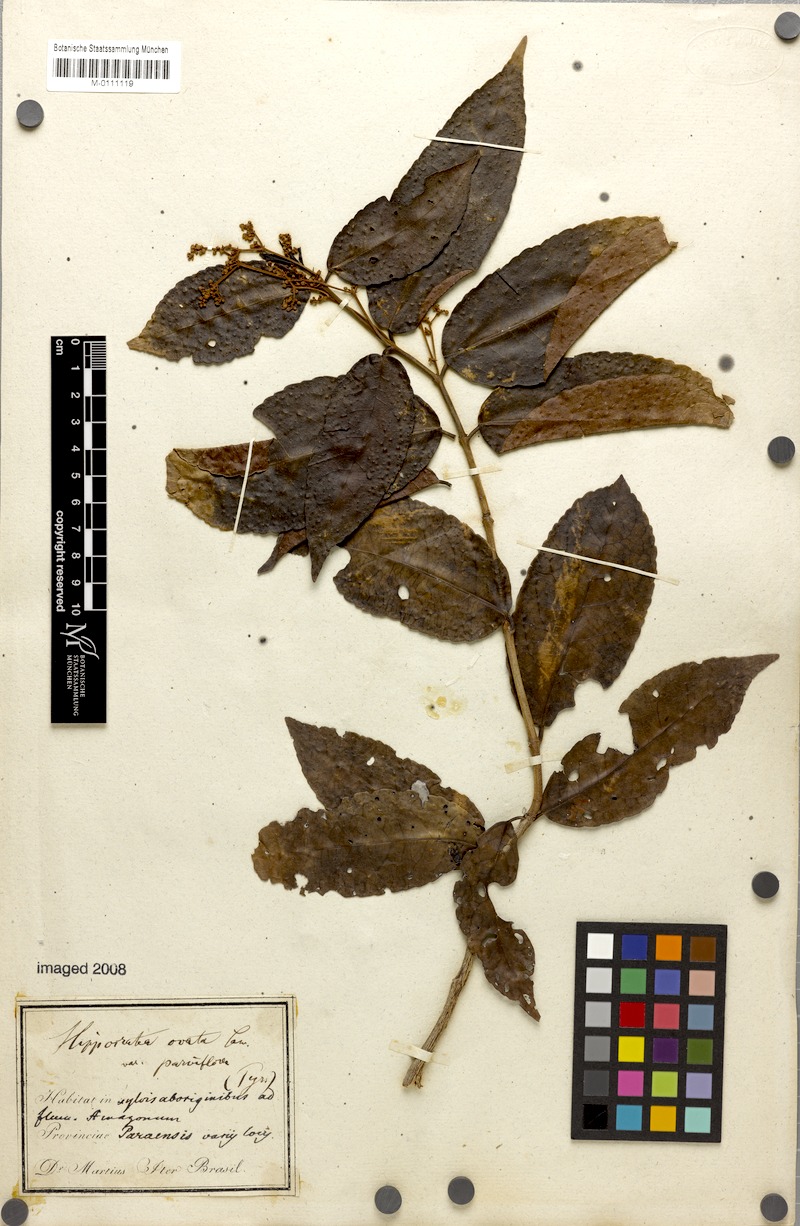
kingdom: Plantae
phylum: Tracheophyta
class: Magnoliopsida
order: Celastrales
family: Celastraceae
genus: Hippocratea
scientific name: Hippocratea volubilis
